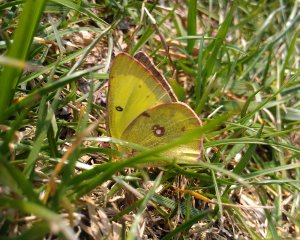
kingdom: Animalia
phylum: Arthropoda
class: Insecta
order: Lepidoptera
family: Pieridae
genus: Colias
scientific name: Colias
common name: Clouded Yellows
